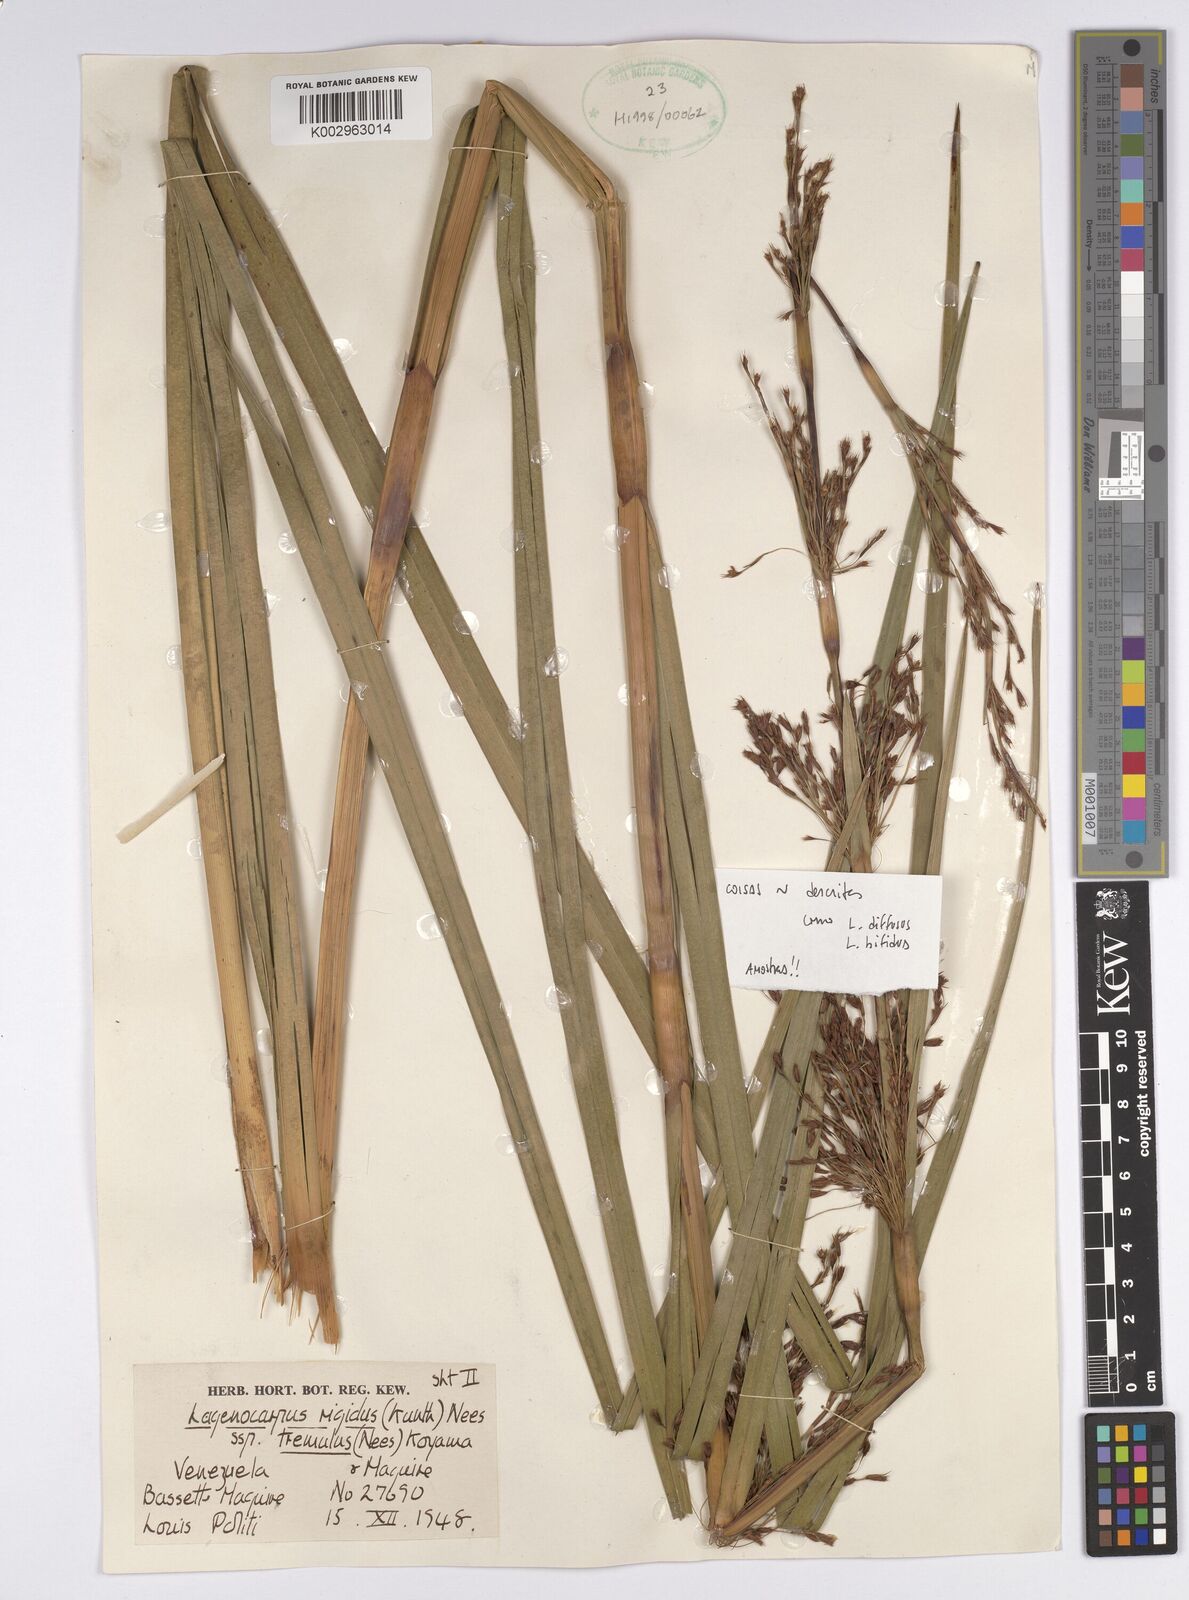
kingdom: Plantae
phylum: Tracheophyta
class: Liliopsida
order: Poales
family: Cyperaceae
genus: Lagenocarpus
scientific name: Lagenocarpus rigidus
